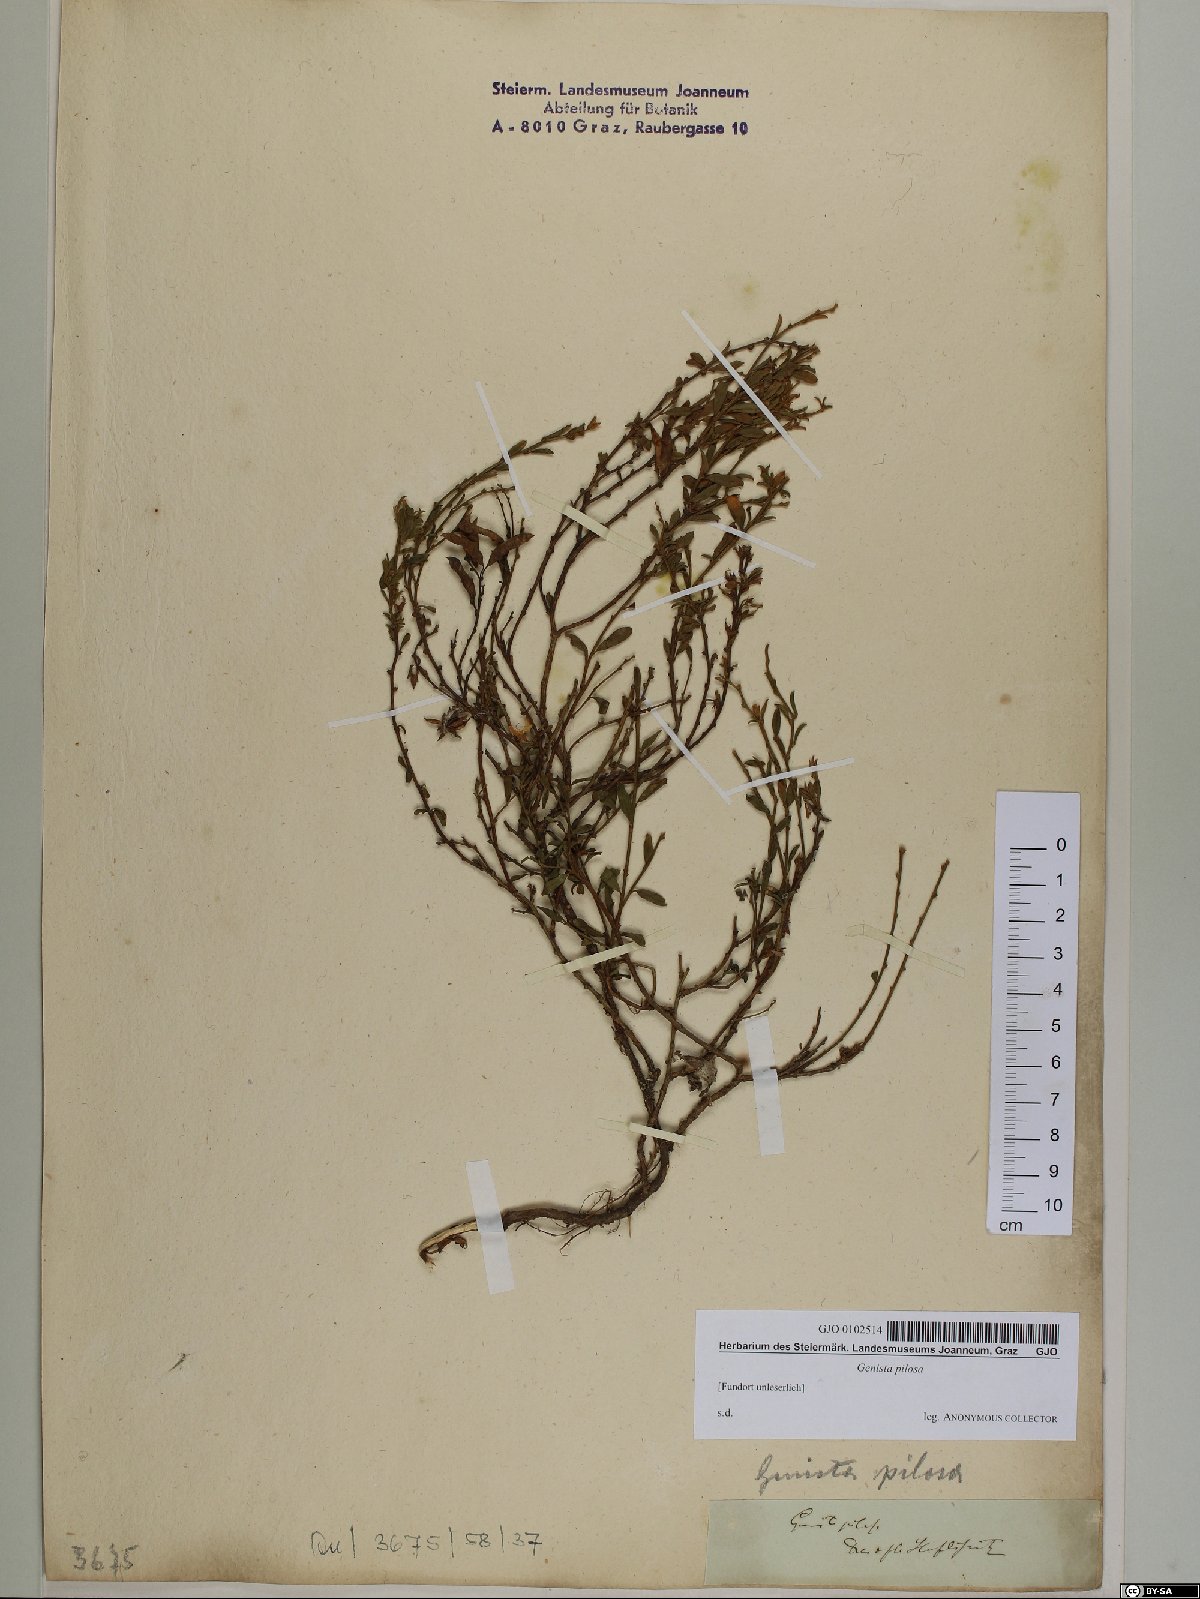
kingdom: Plantae
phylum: Tracheophyta
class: Magnoliopsida
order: Fabales
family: Fabaceae
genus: Genista
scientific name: Genista pilosa
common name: Hairy greenweed
